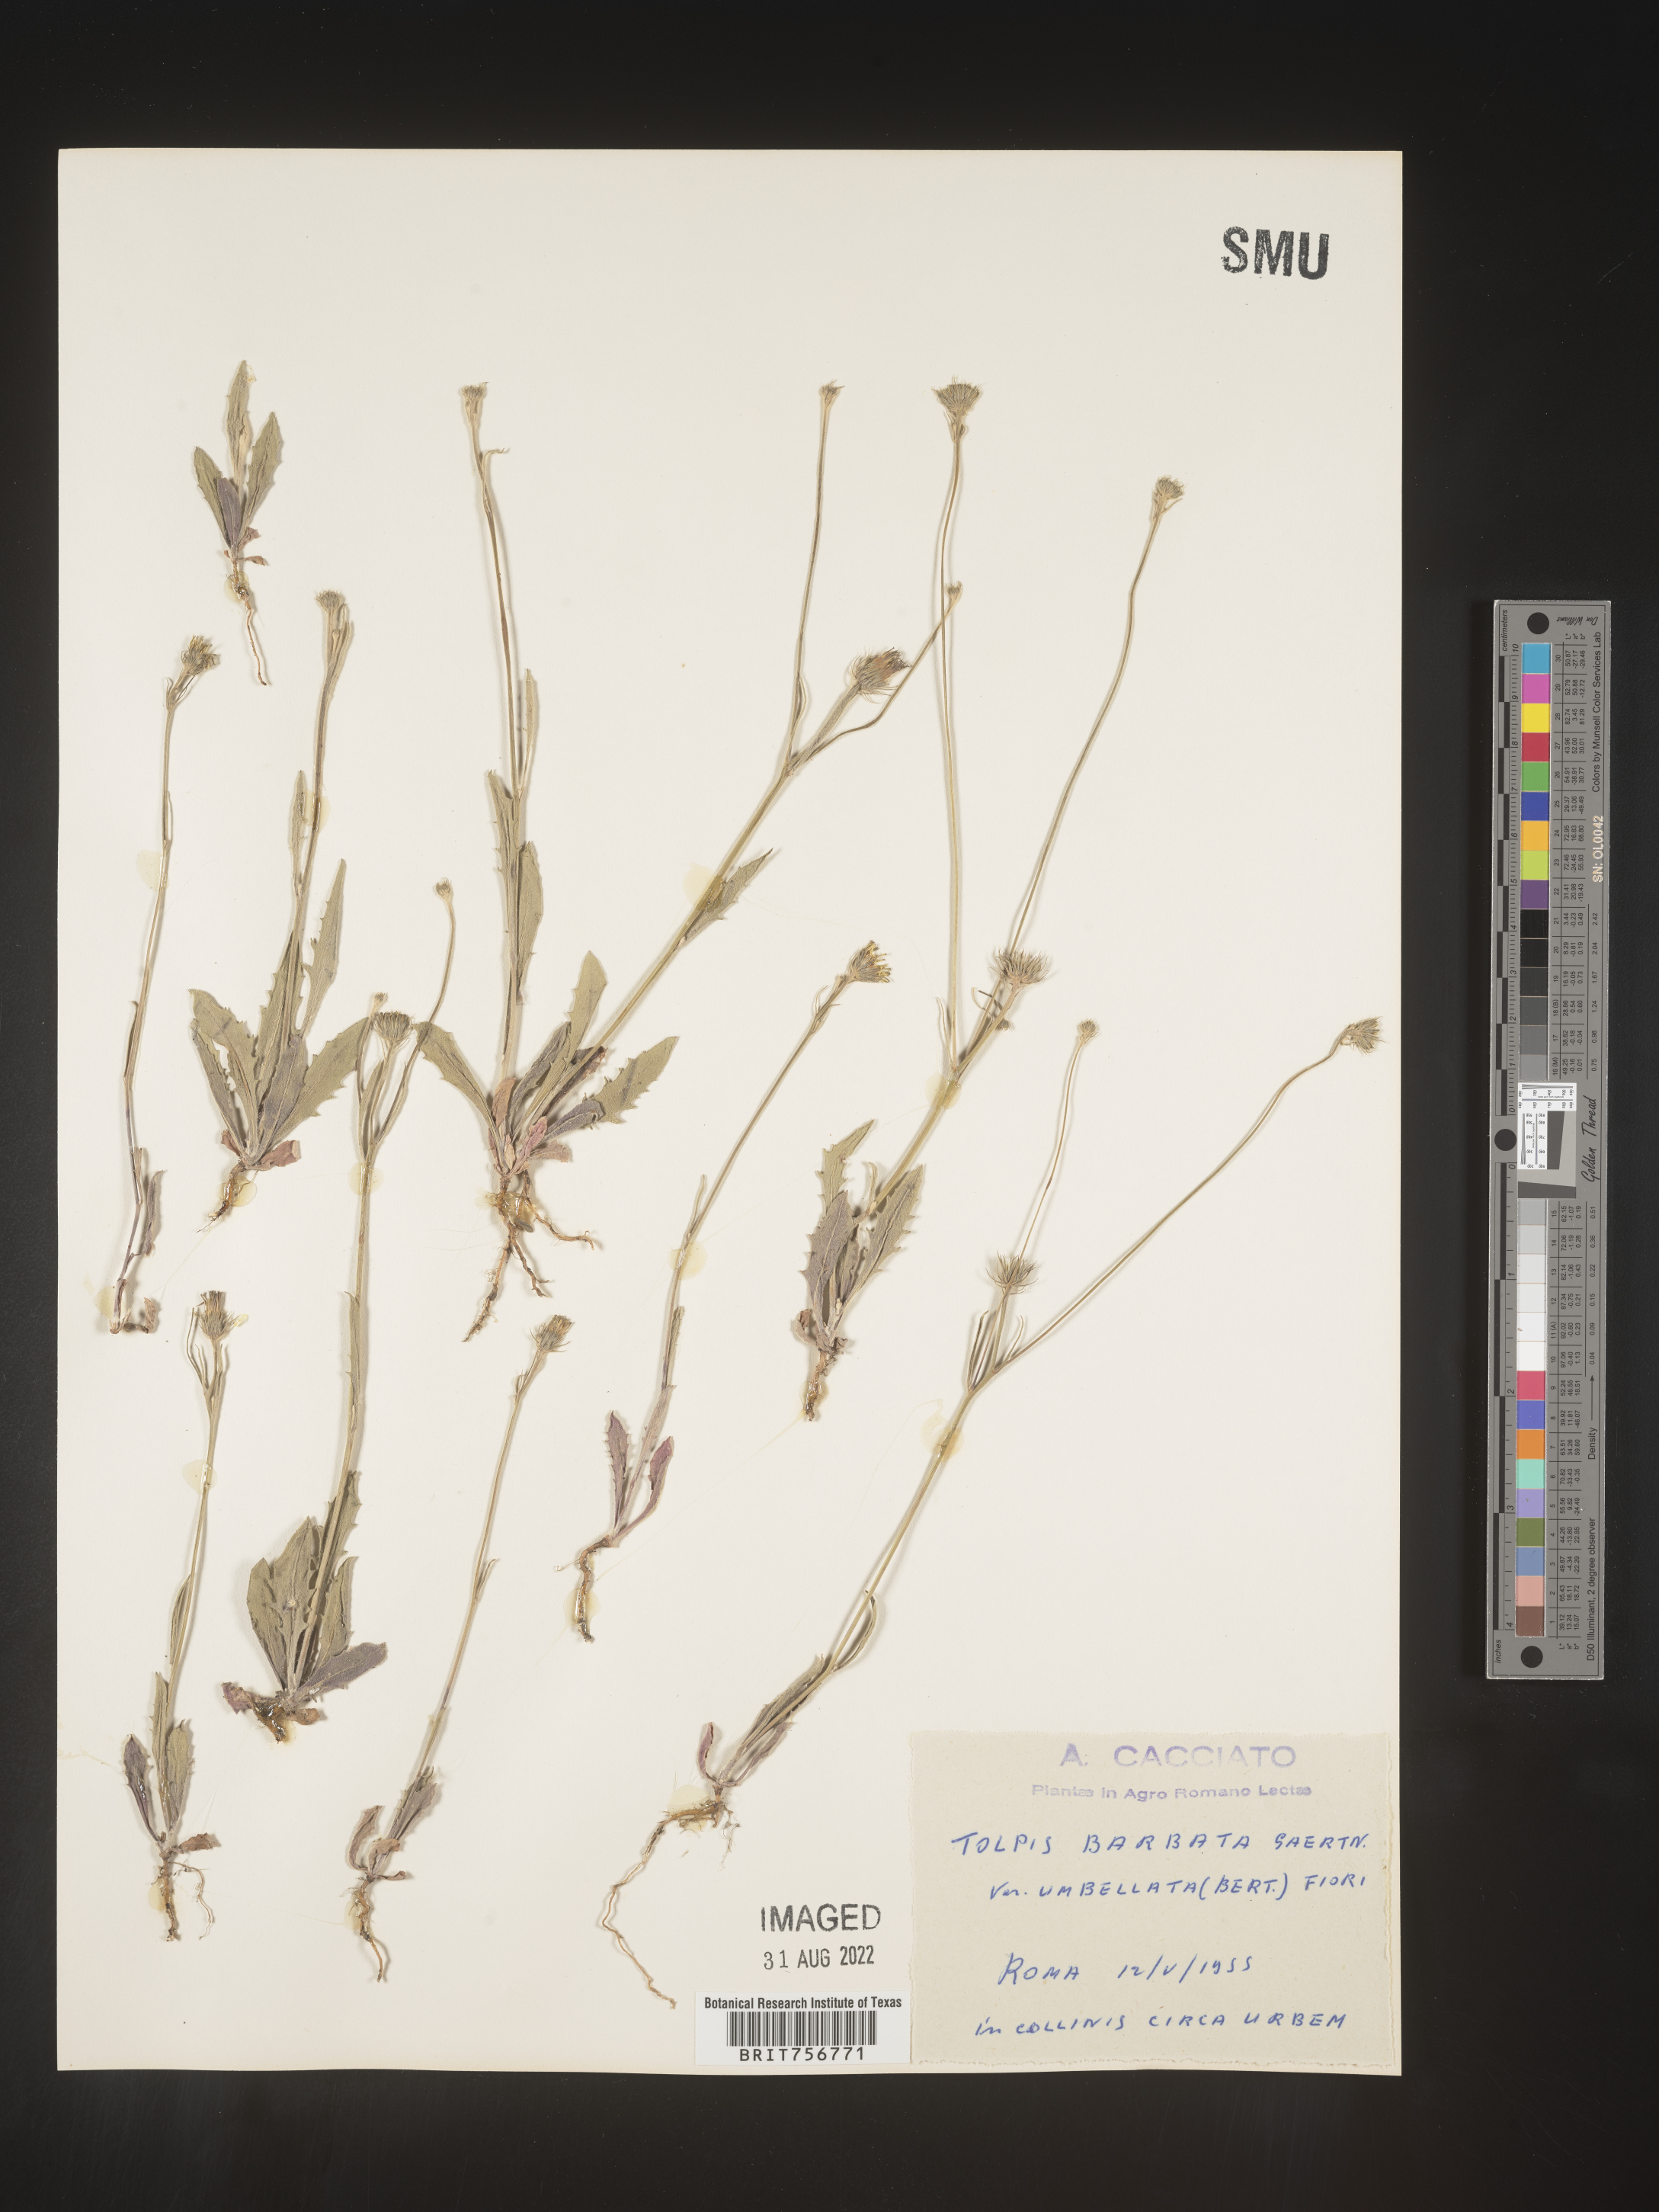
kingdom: Plantae
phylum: Tracheophyta
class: Magnoliopsida
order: Asterales
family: Asteraceae
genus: Tolpis
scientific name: Tolpis
